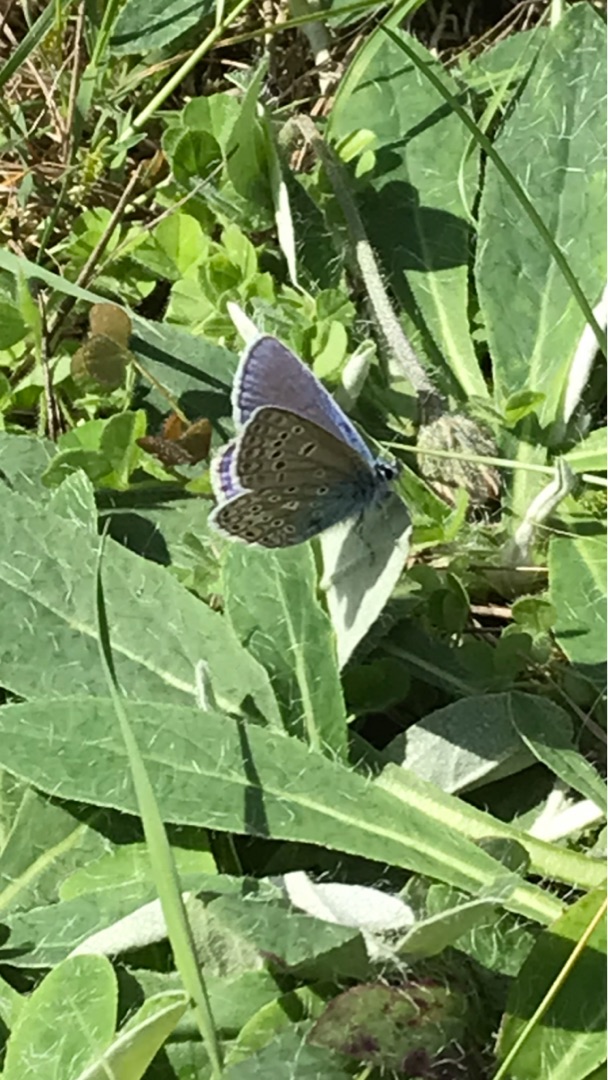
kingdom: Animalia
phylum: Arthropoda
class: Insecta
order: Lepidoptera
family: Lycaenidae
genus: Polyommatus
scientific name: Polyommatus icarus
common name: Almindelig blåfugl
